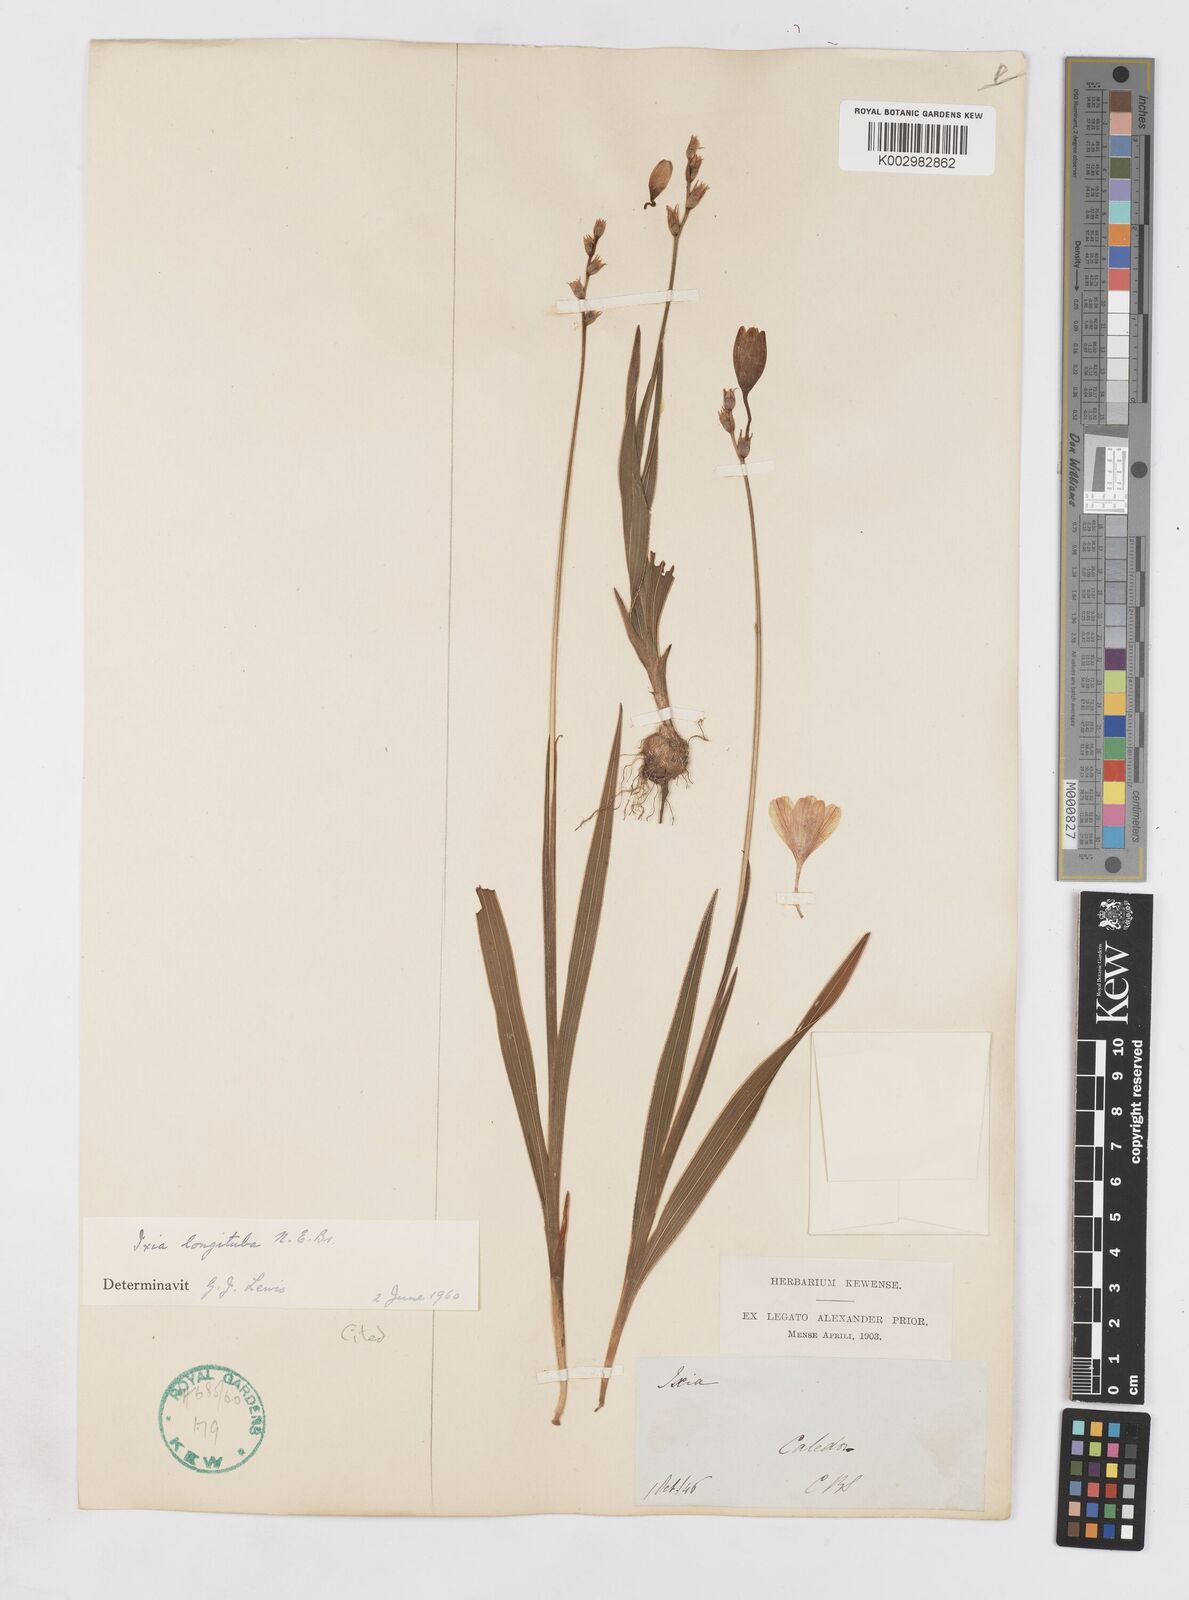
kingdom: Plantae
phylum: Tracheophyta
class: Liliopsida
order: Asparagales
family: Iridaceae
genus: Ixia
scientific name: Ixia longituba
